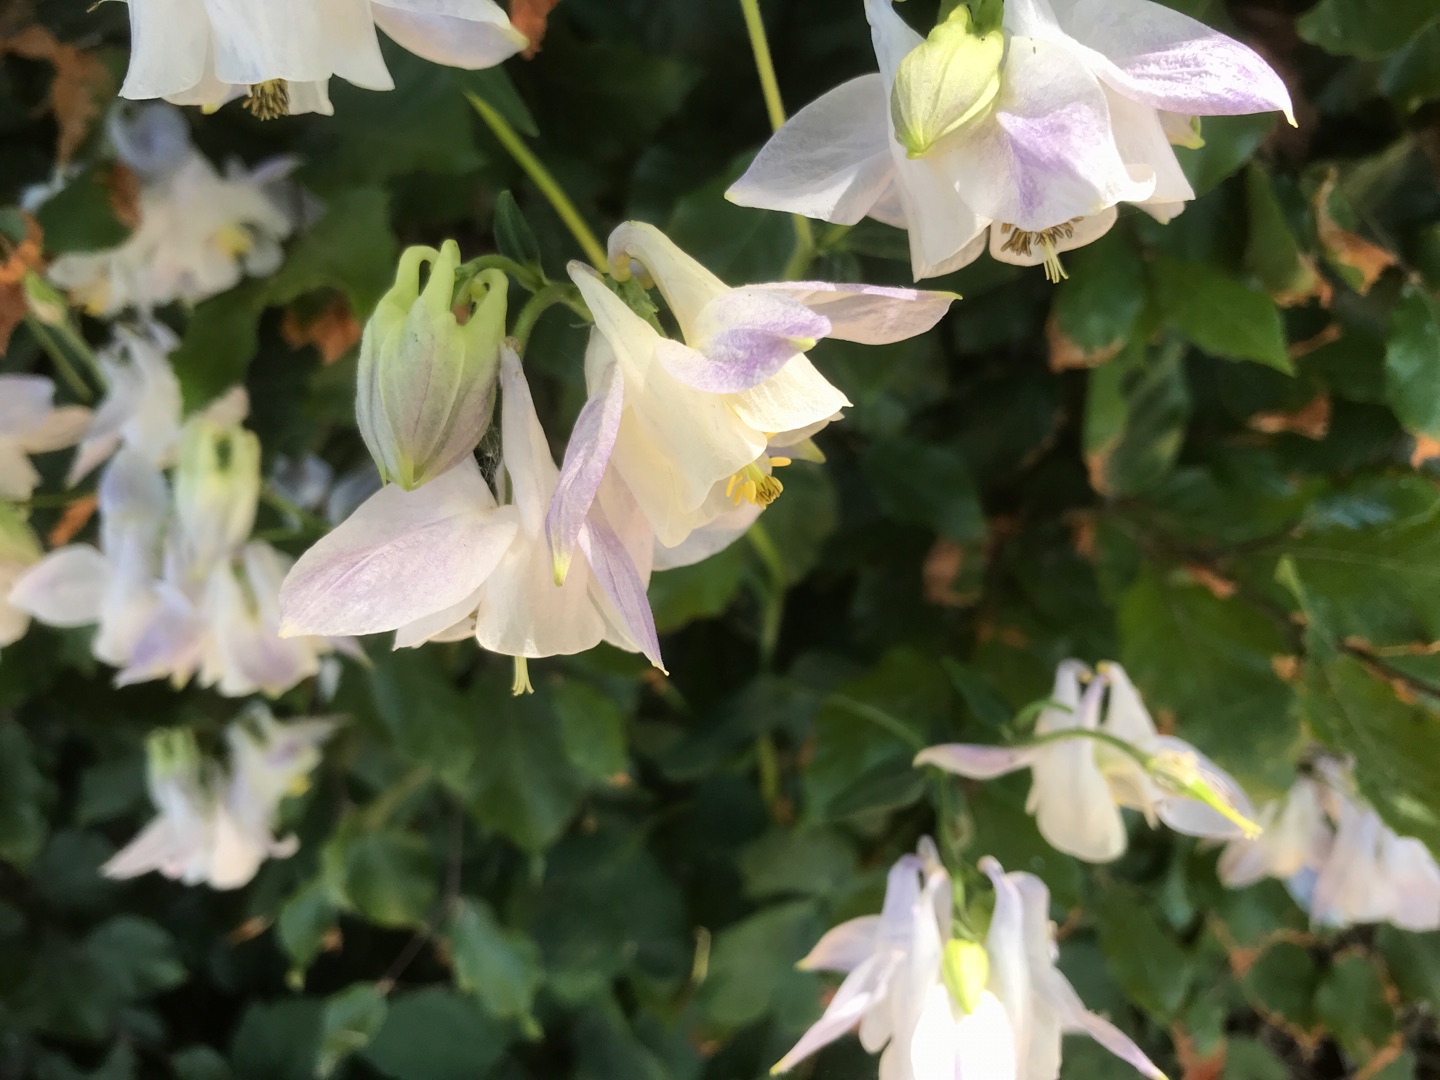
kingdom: Plantae
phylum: Tracheophyta
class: Magnoliopsida
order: Ranunculales
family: Ranunculaceae
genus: Aquilegia
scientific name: Aquilegia vulgaris
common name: Akeleje
